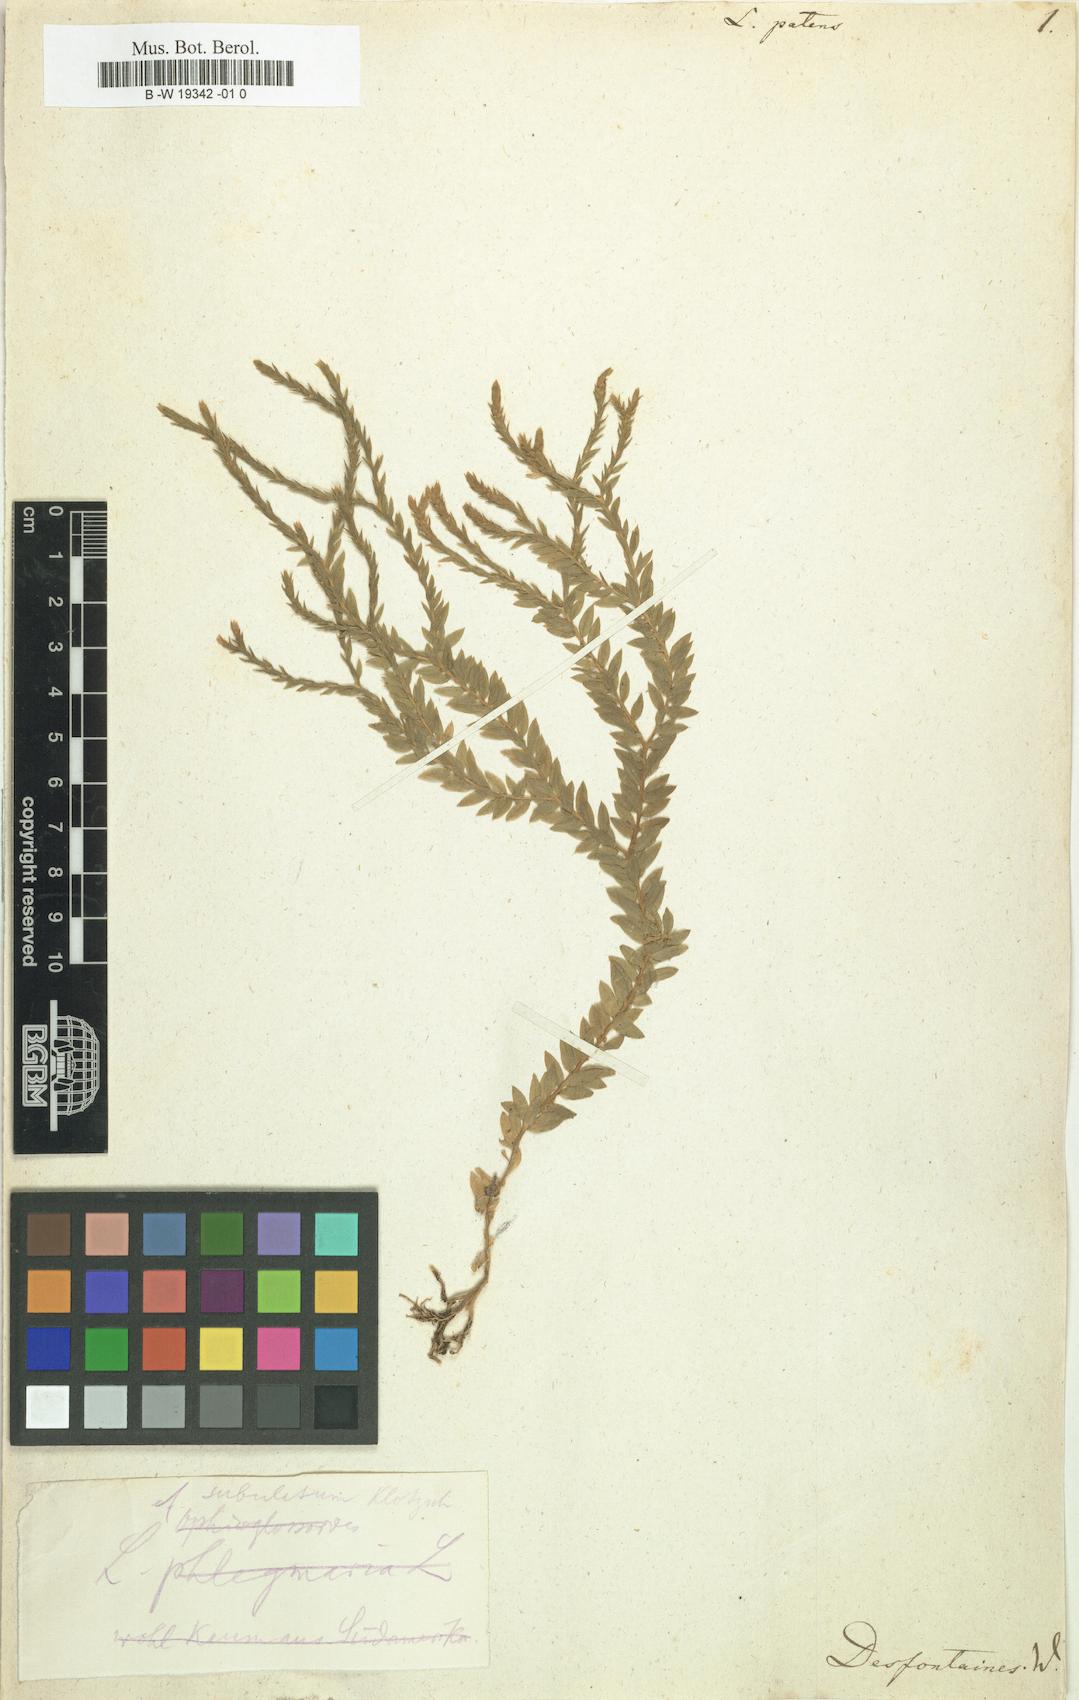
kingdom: Plantae
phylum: Tracheophyta
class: Lycopodiopsida
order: Lycopodiales
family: Lycopodiaceae
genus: Phlegmariurus
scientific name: Phlegmariurus myrsinites
